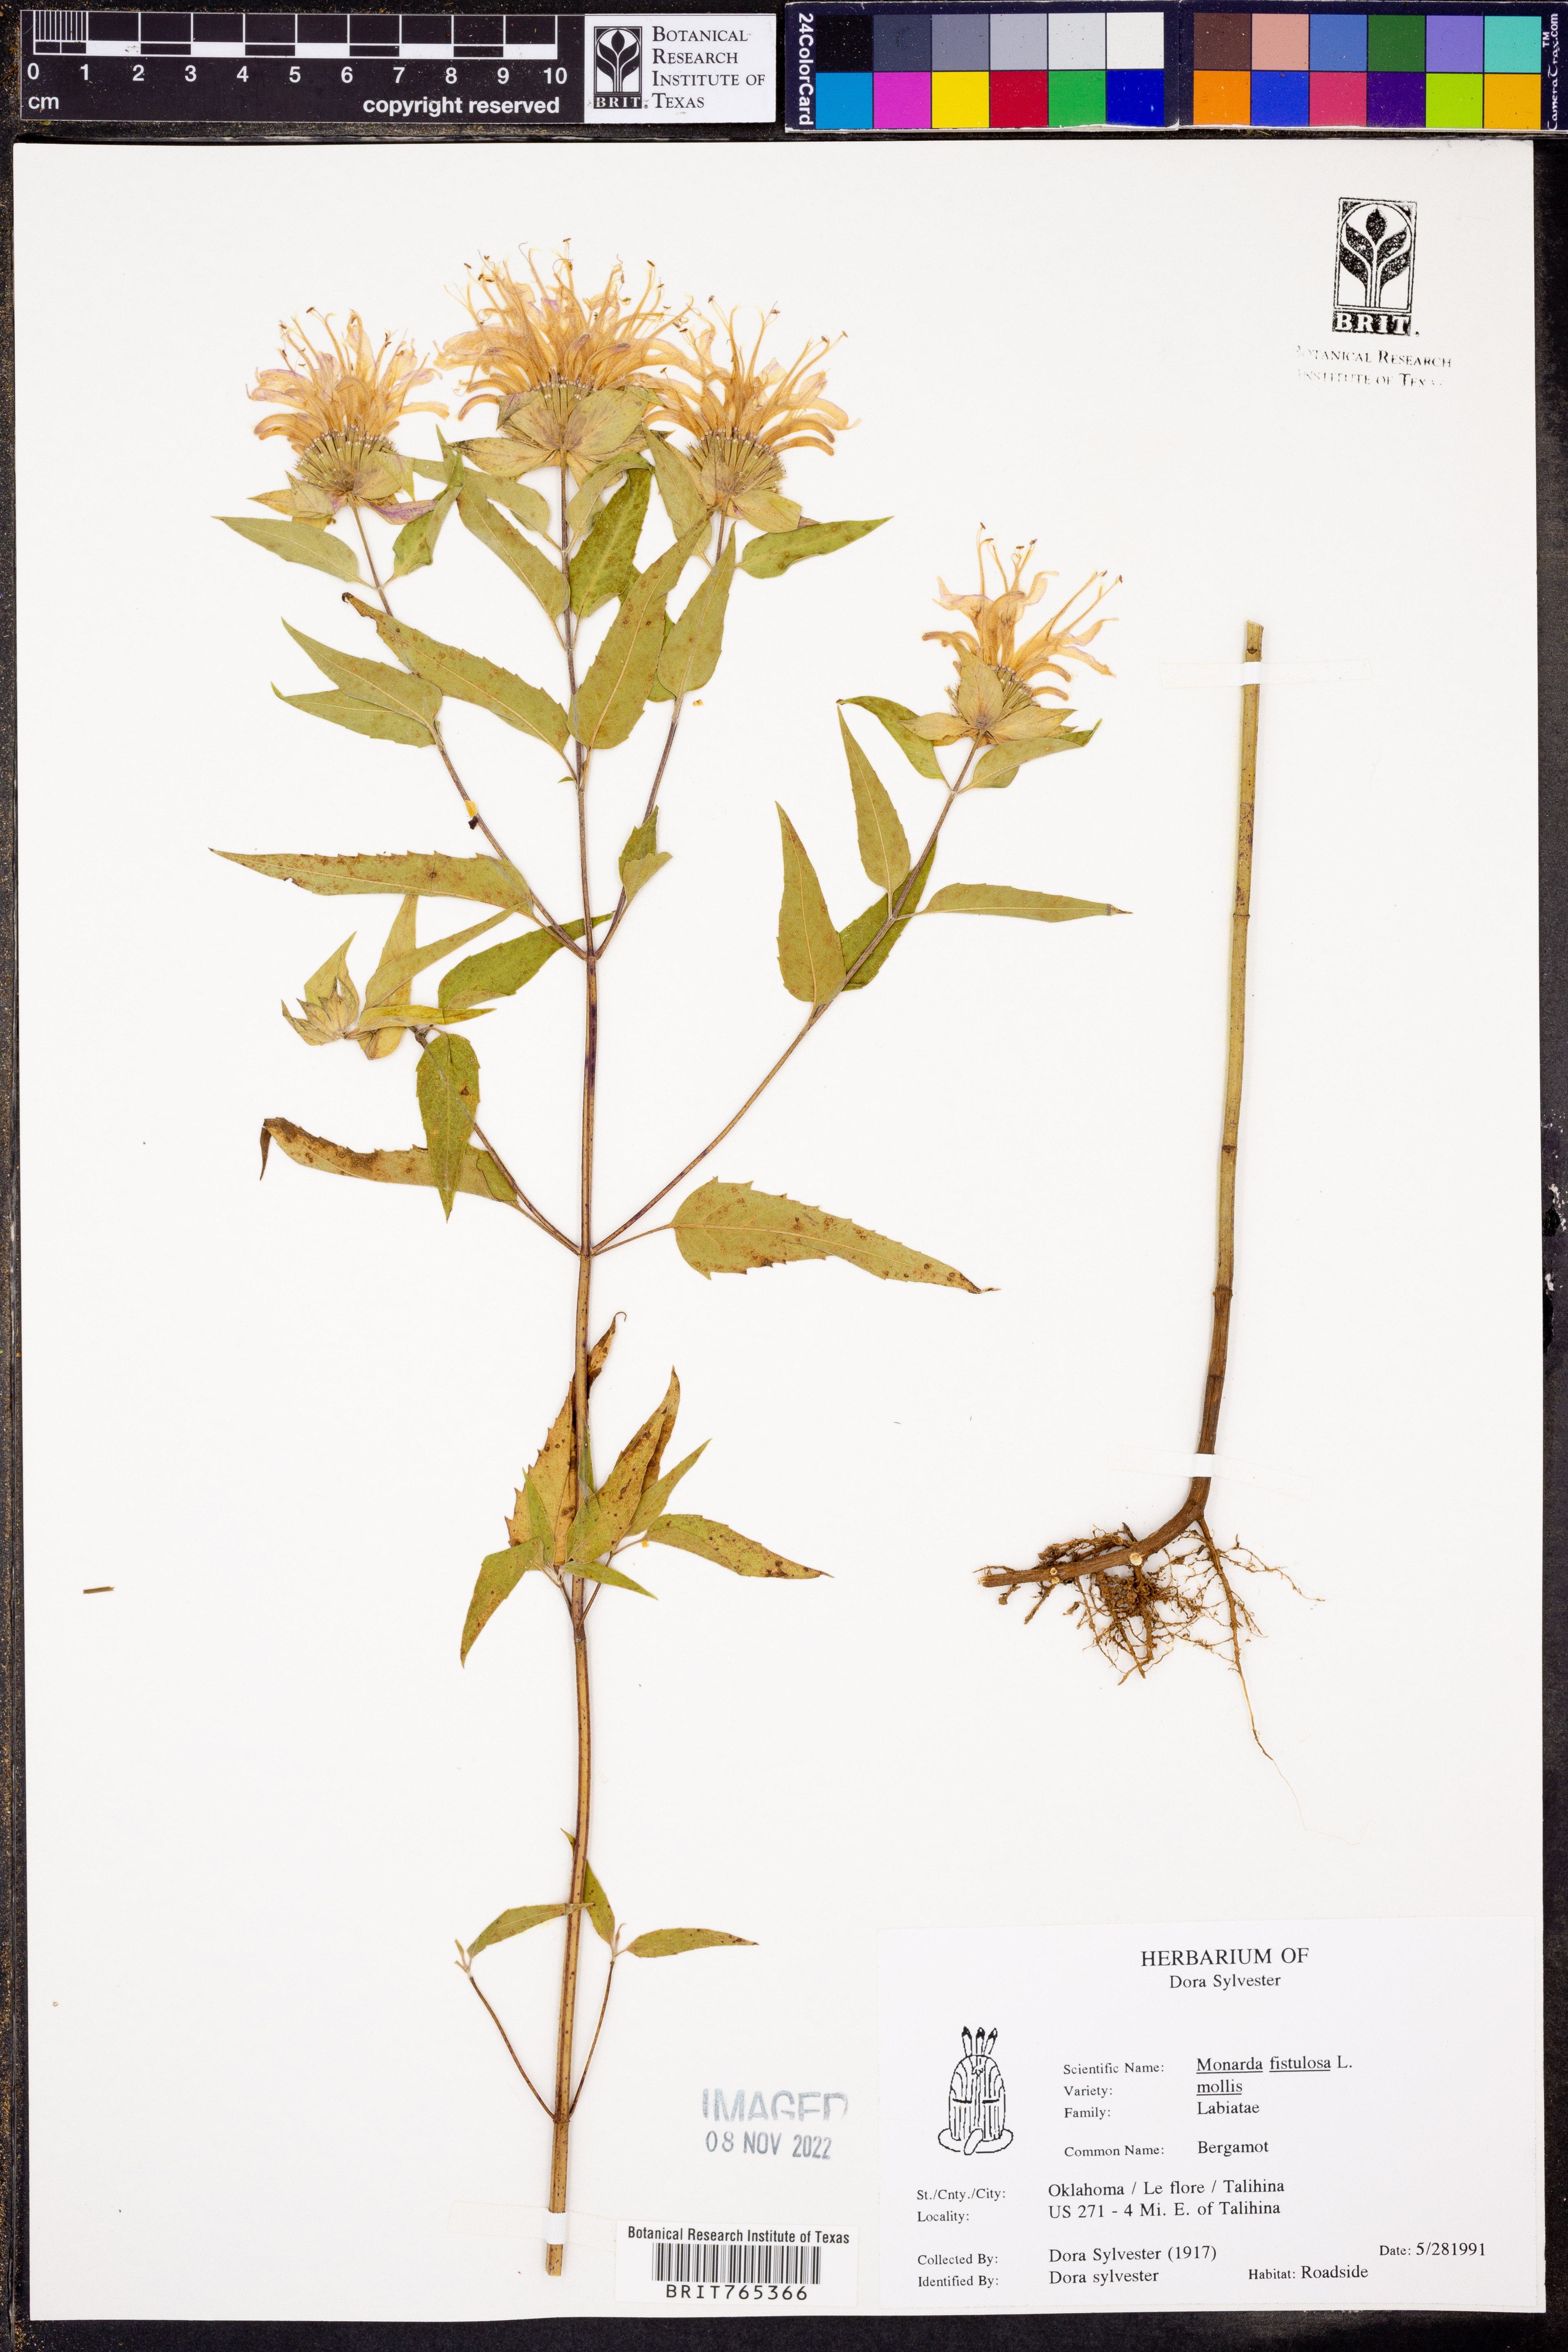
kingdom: Plantae
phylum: Tracheophyta
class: Magnoliopsida
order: Lamiales
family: Lamiaceae
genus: Monarda
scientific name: Monarda fistulosa
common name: Purple beebalm
